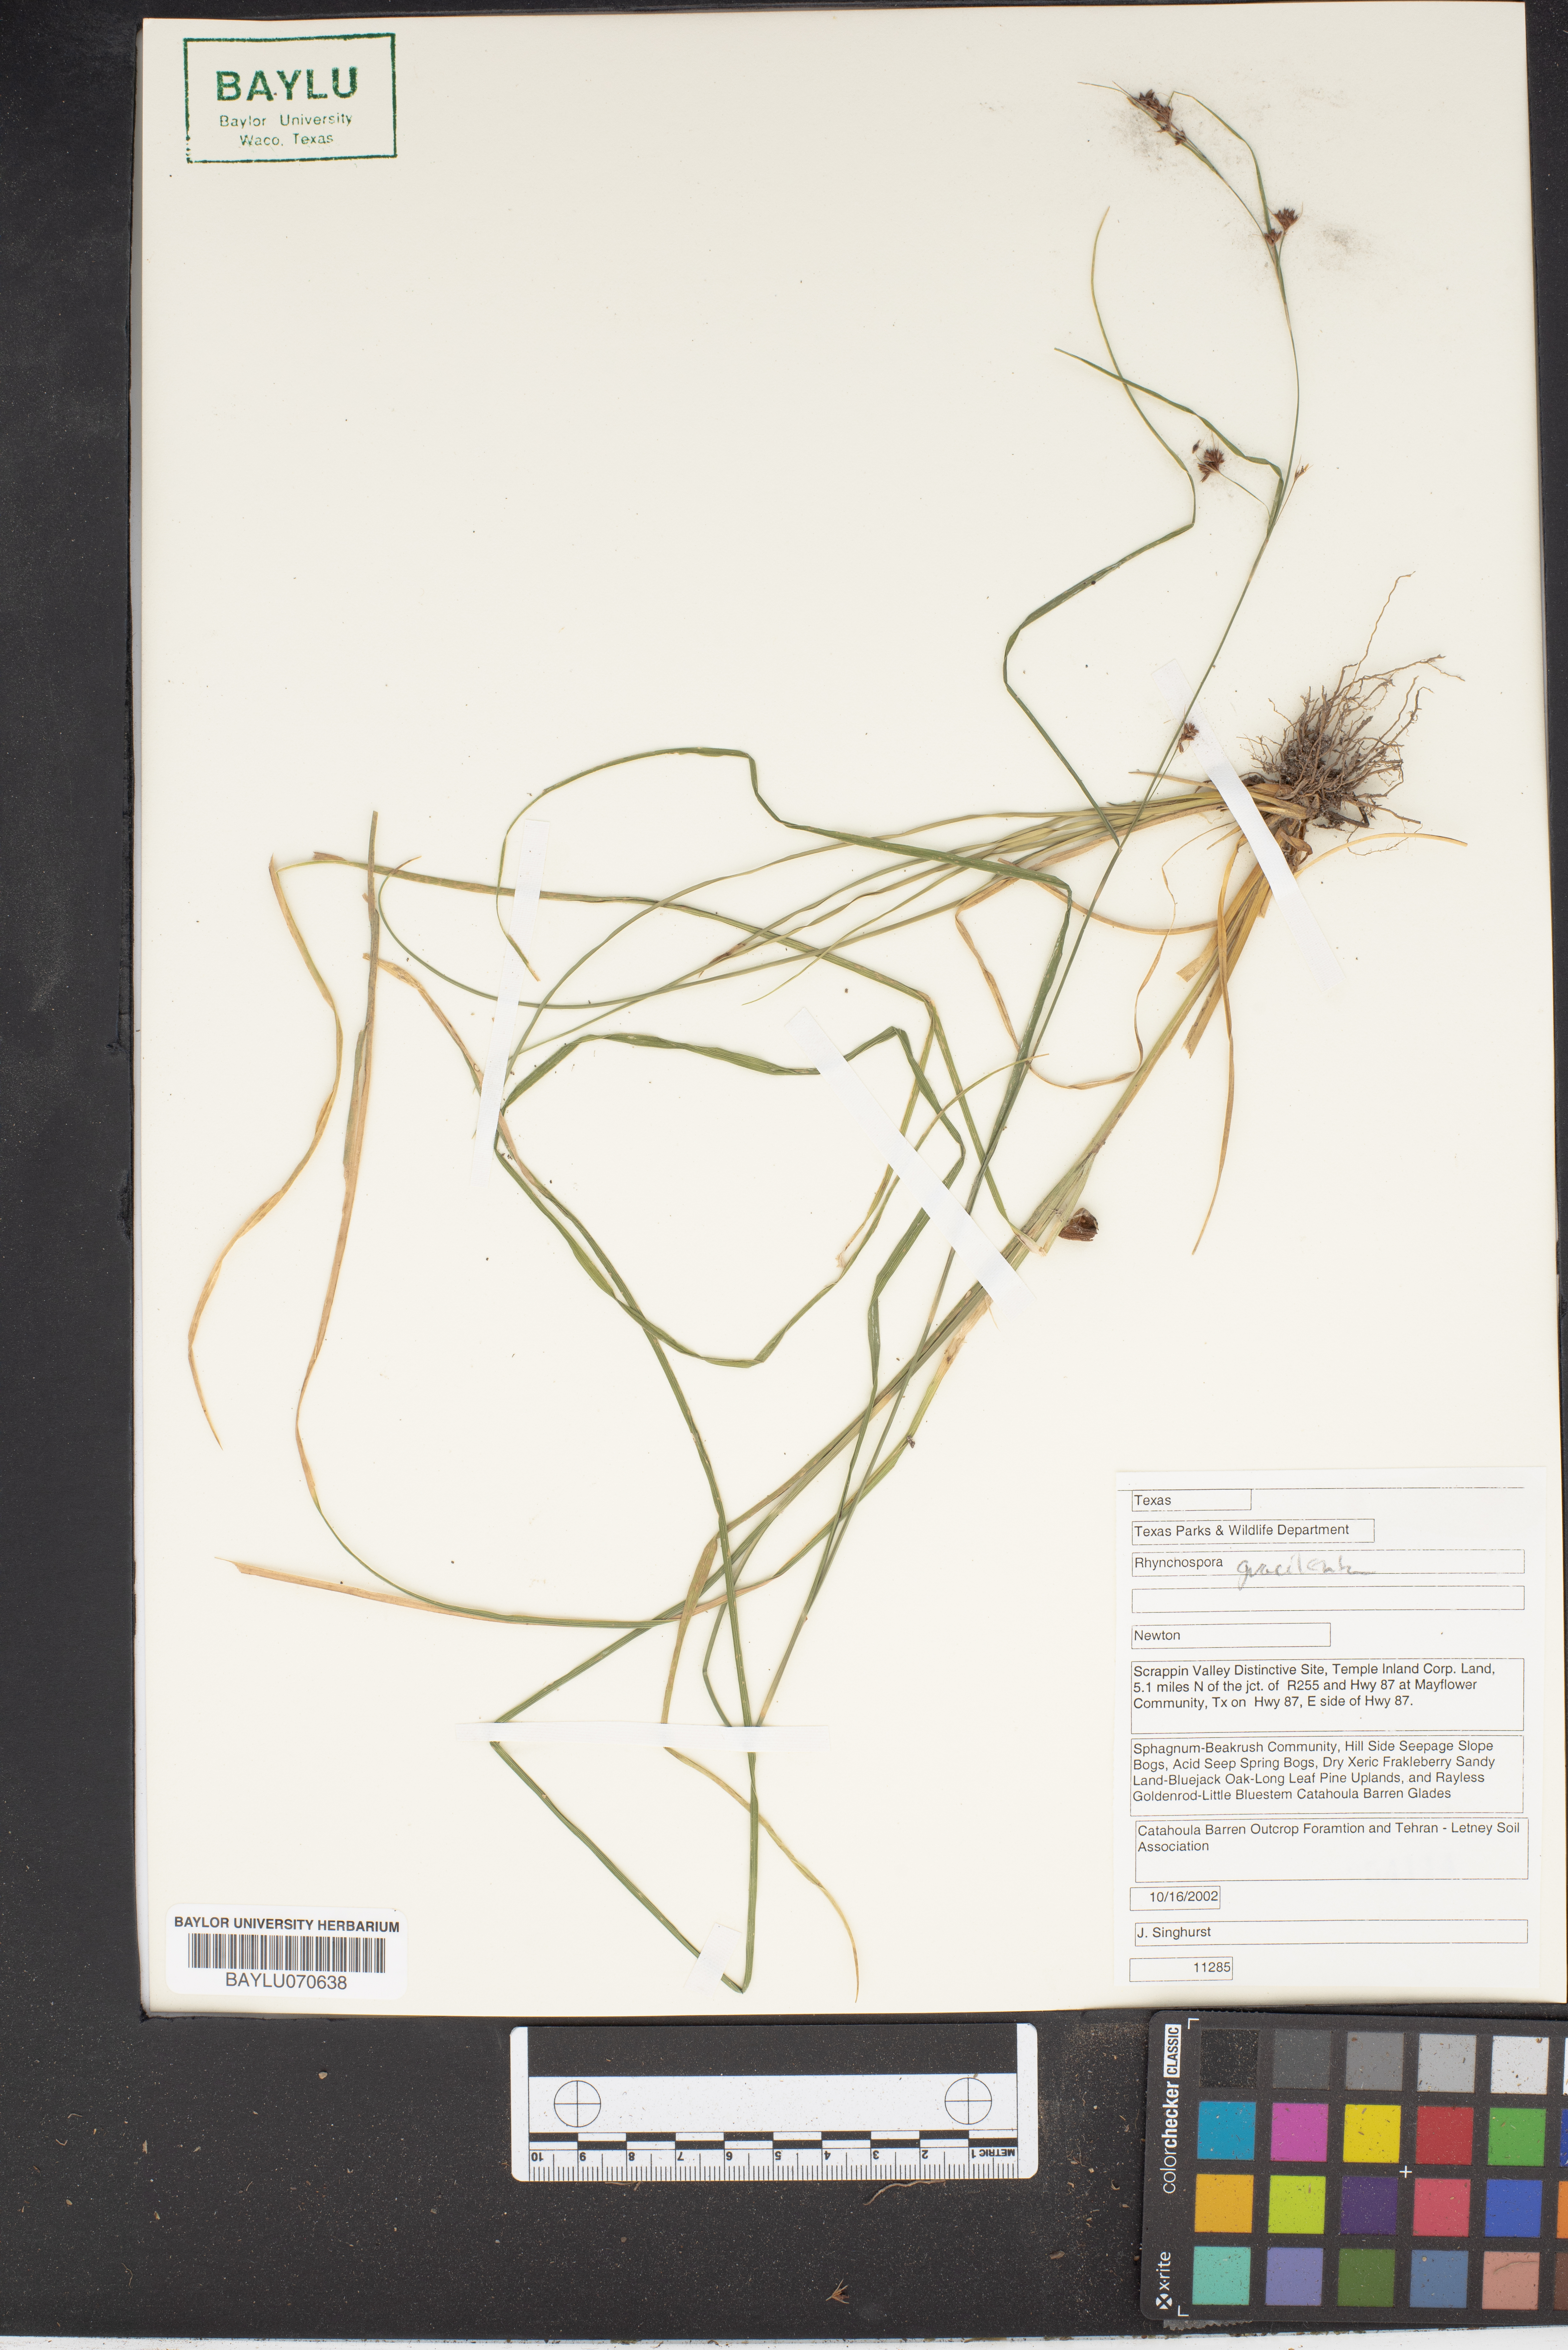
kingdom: Plantae
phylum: Tracheophyta
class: Liliopsida
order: Poales
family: Cyperaceae
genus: Rhynchospora
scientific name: Rhynchospora gracilenta
